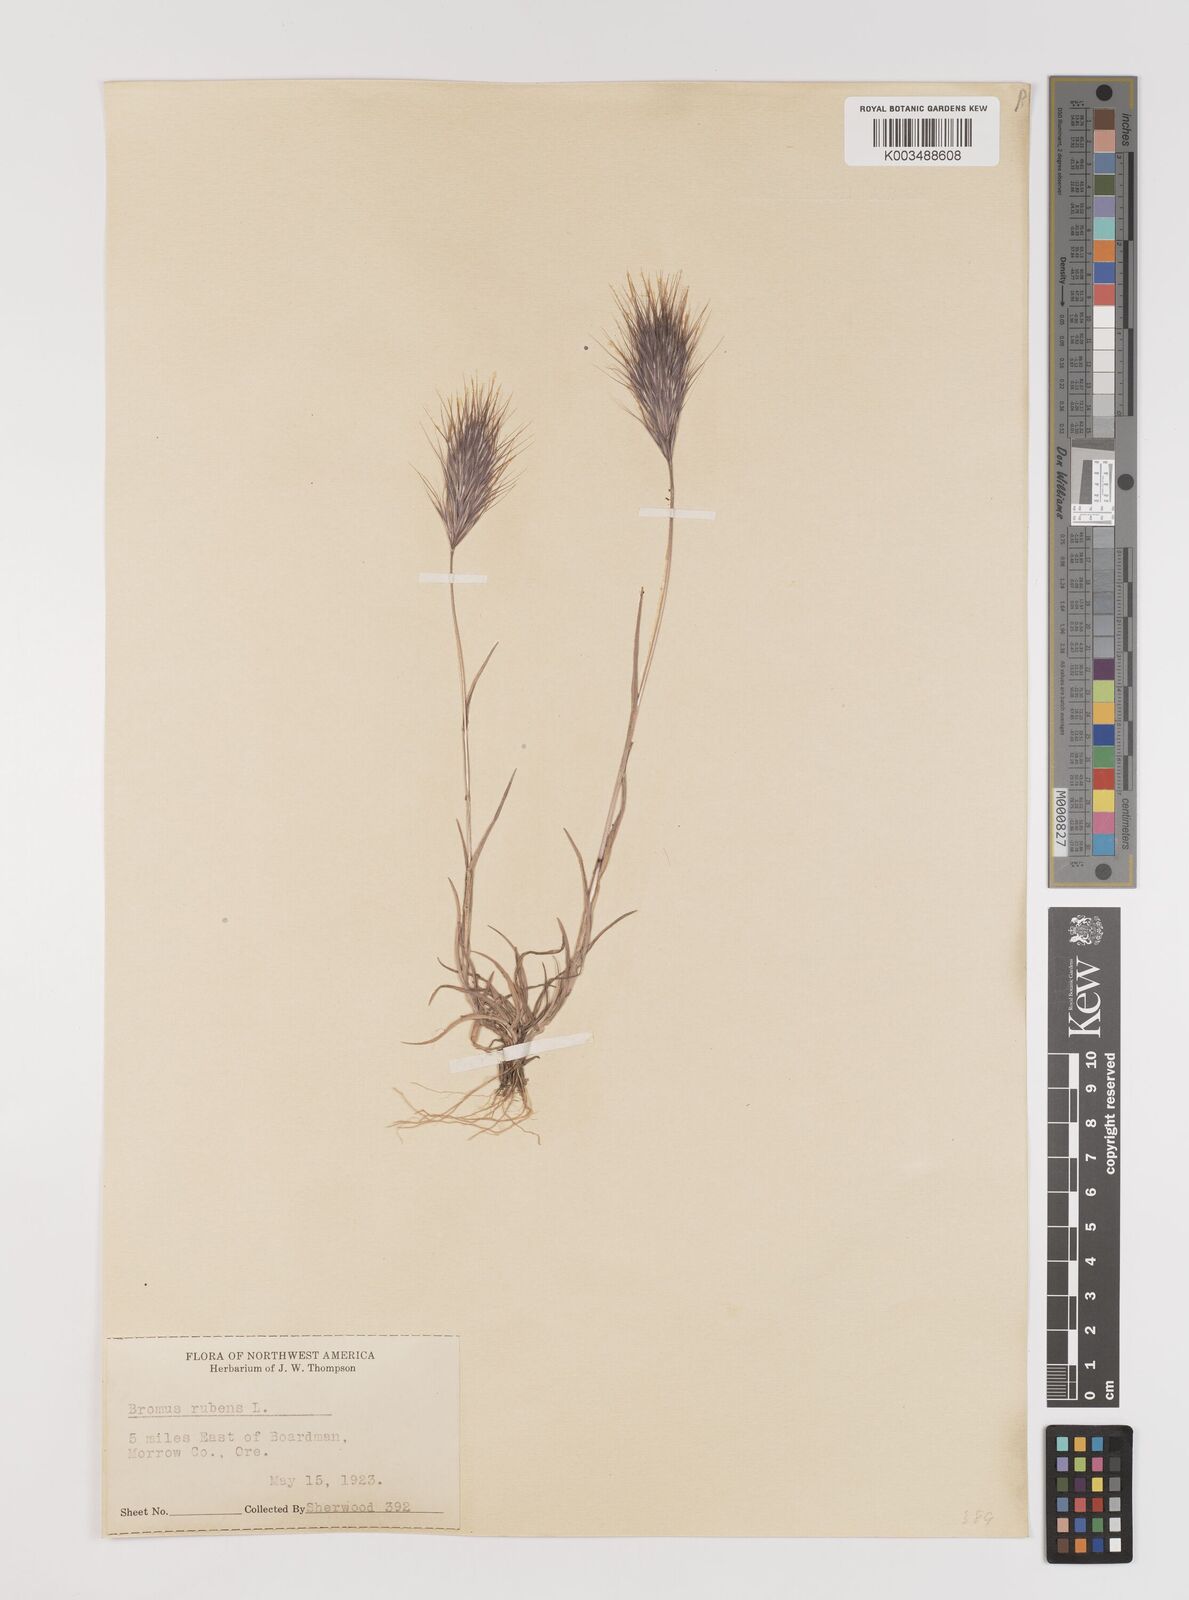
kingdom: Plantae
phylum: Tracheophyta
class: Liliopsida
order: Poales
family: Poaceae
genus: Bromus
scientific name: Bromus rubens
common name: Red brome
